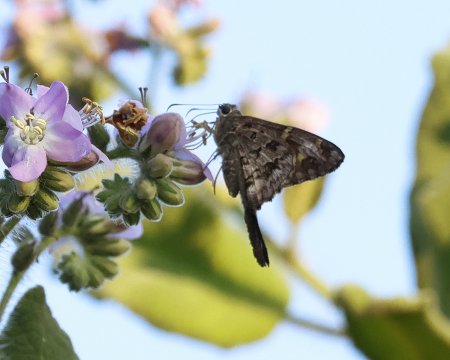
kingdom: Animalia
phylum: Arthropoda
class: Insecta
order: Lepidoptera
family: Hesperiidae
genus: Urbanus
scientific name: Urbanus dorantes
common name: Dorantes Longtail
